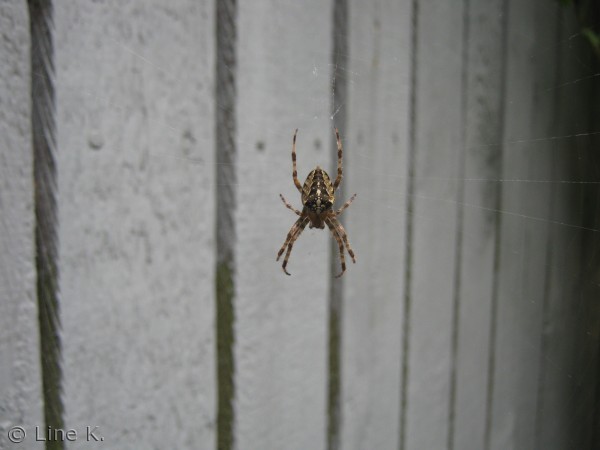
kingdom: Animalia
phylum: Arthropoda
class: Arachnida
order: Araneae
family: Araneidae
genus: Araneus
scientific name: Araneus diadematus
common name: Korsedderkop
